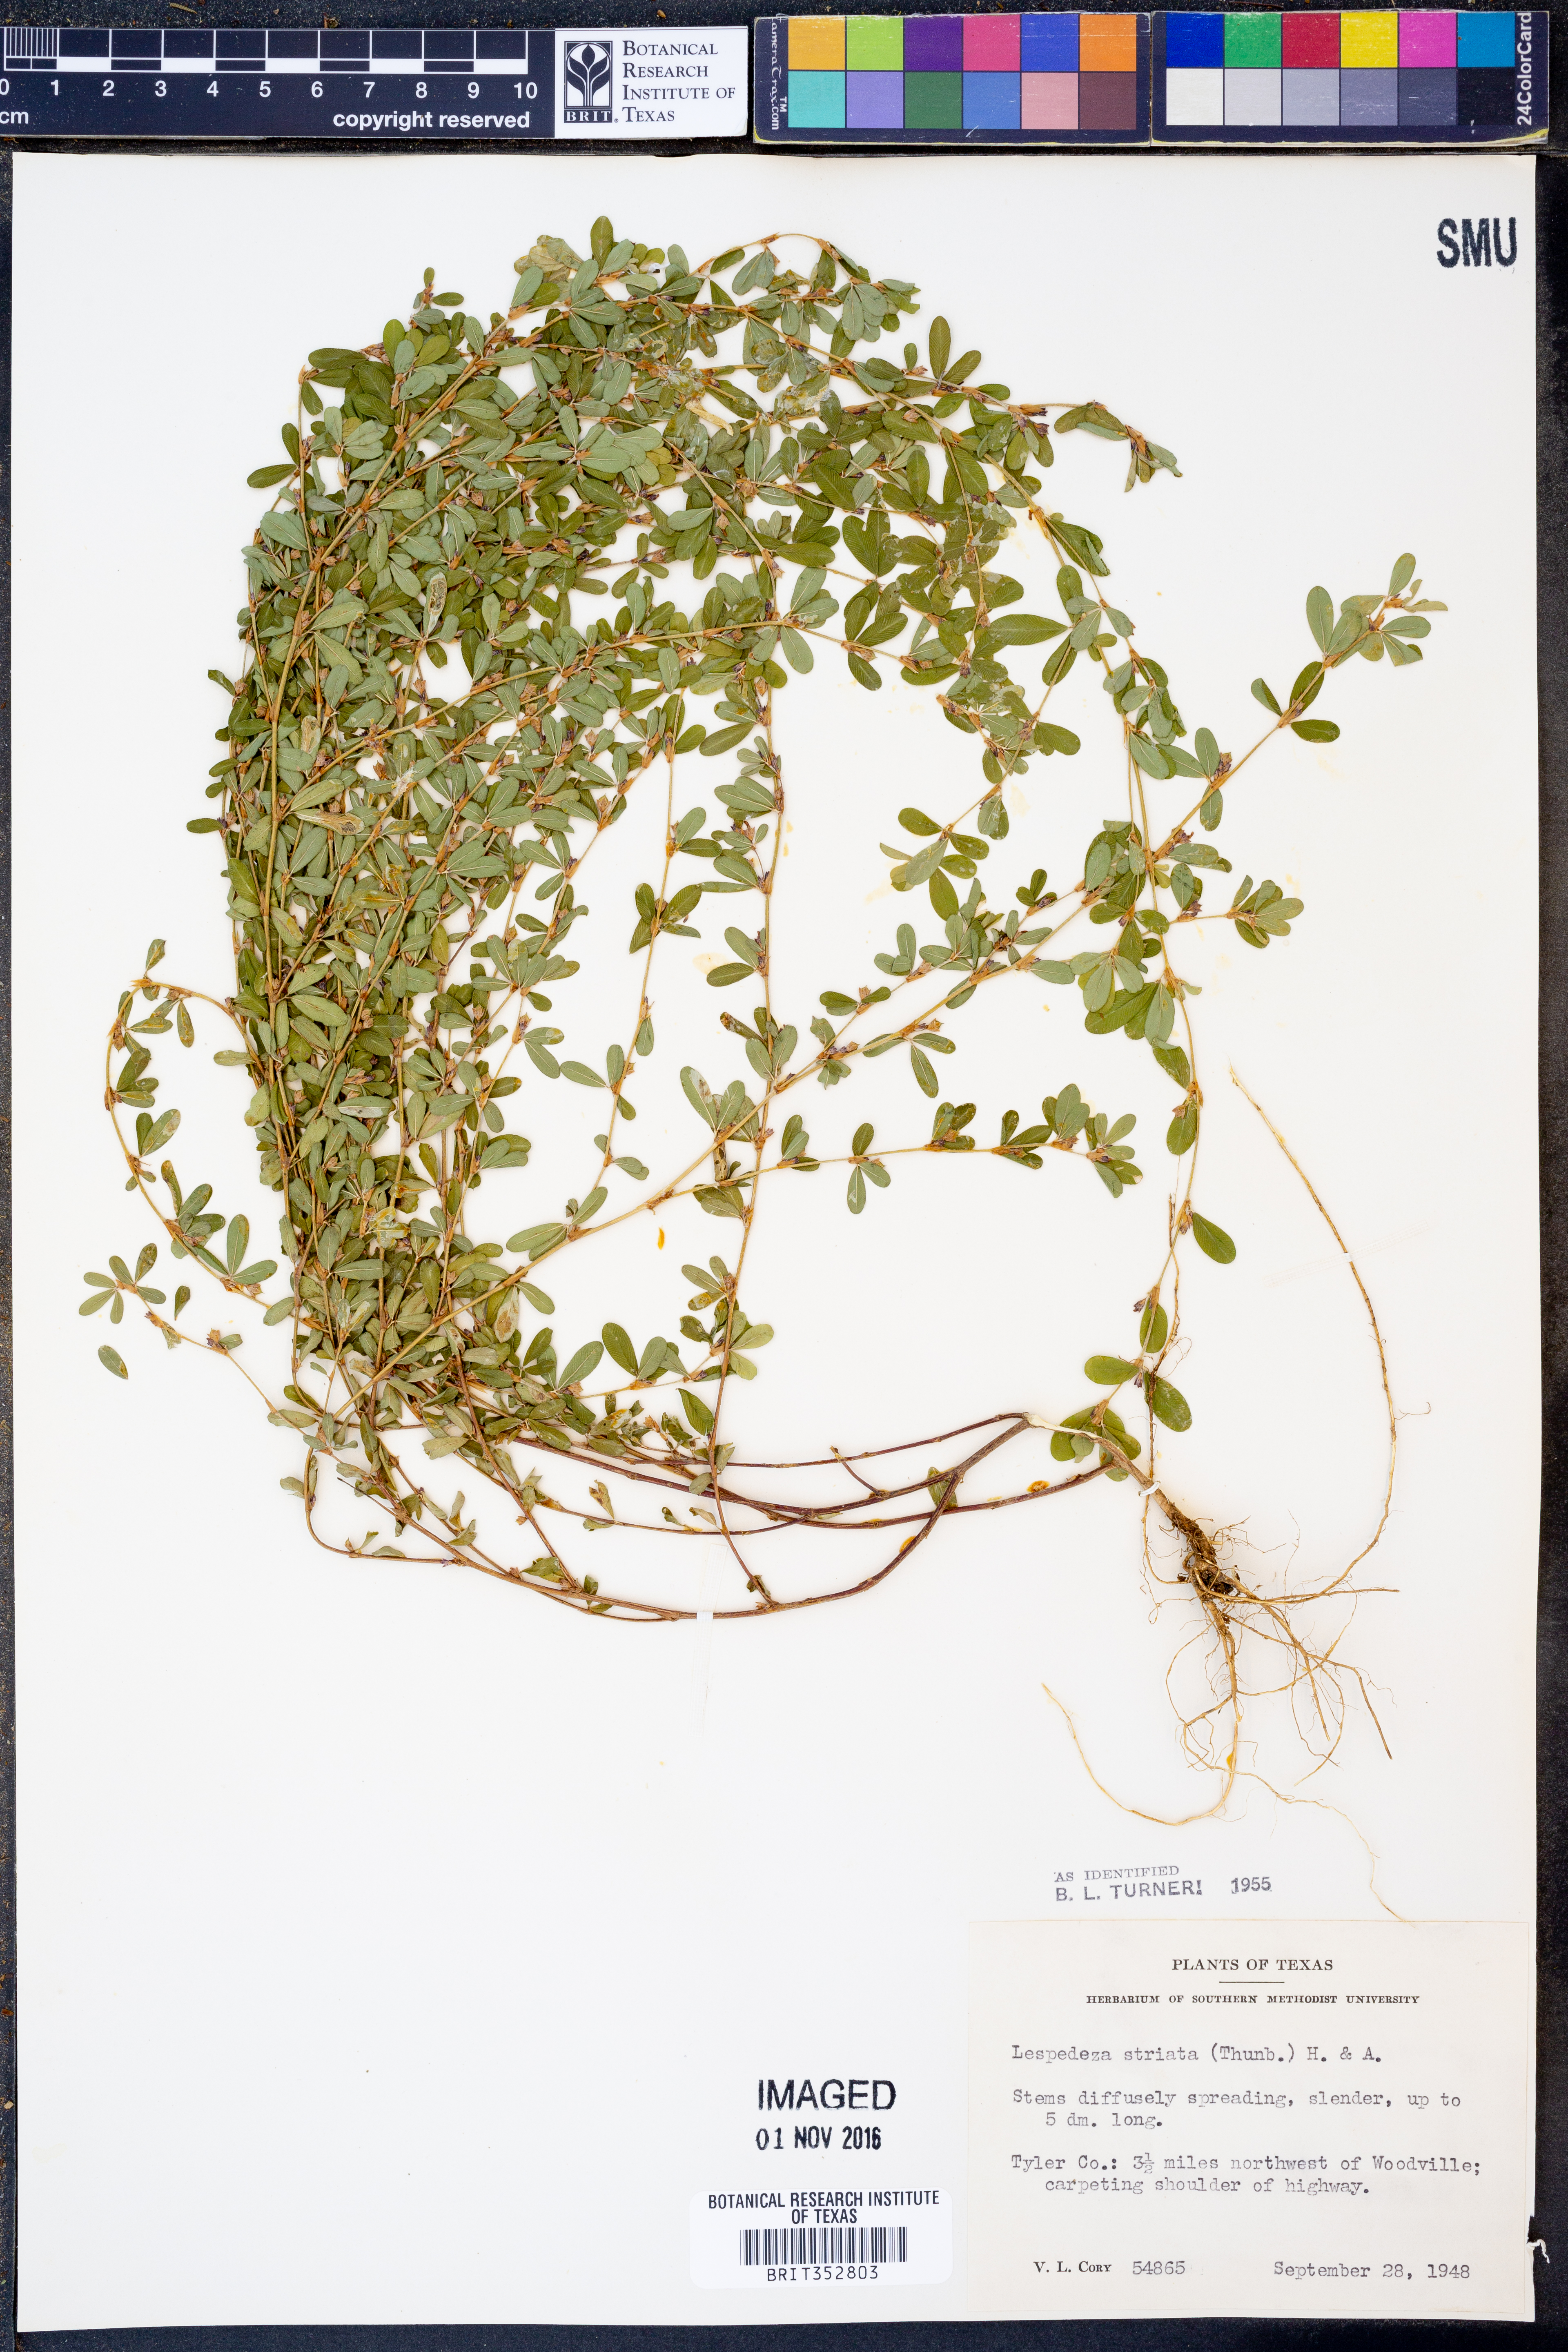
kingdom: Plantae
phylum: Tracheophyta
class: Magnoliopsida
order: Fabales
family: Fabaceae
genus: Kummerowia
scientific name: Kummerowia striata
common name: Japanese clover
